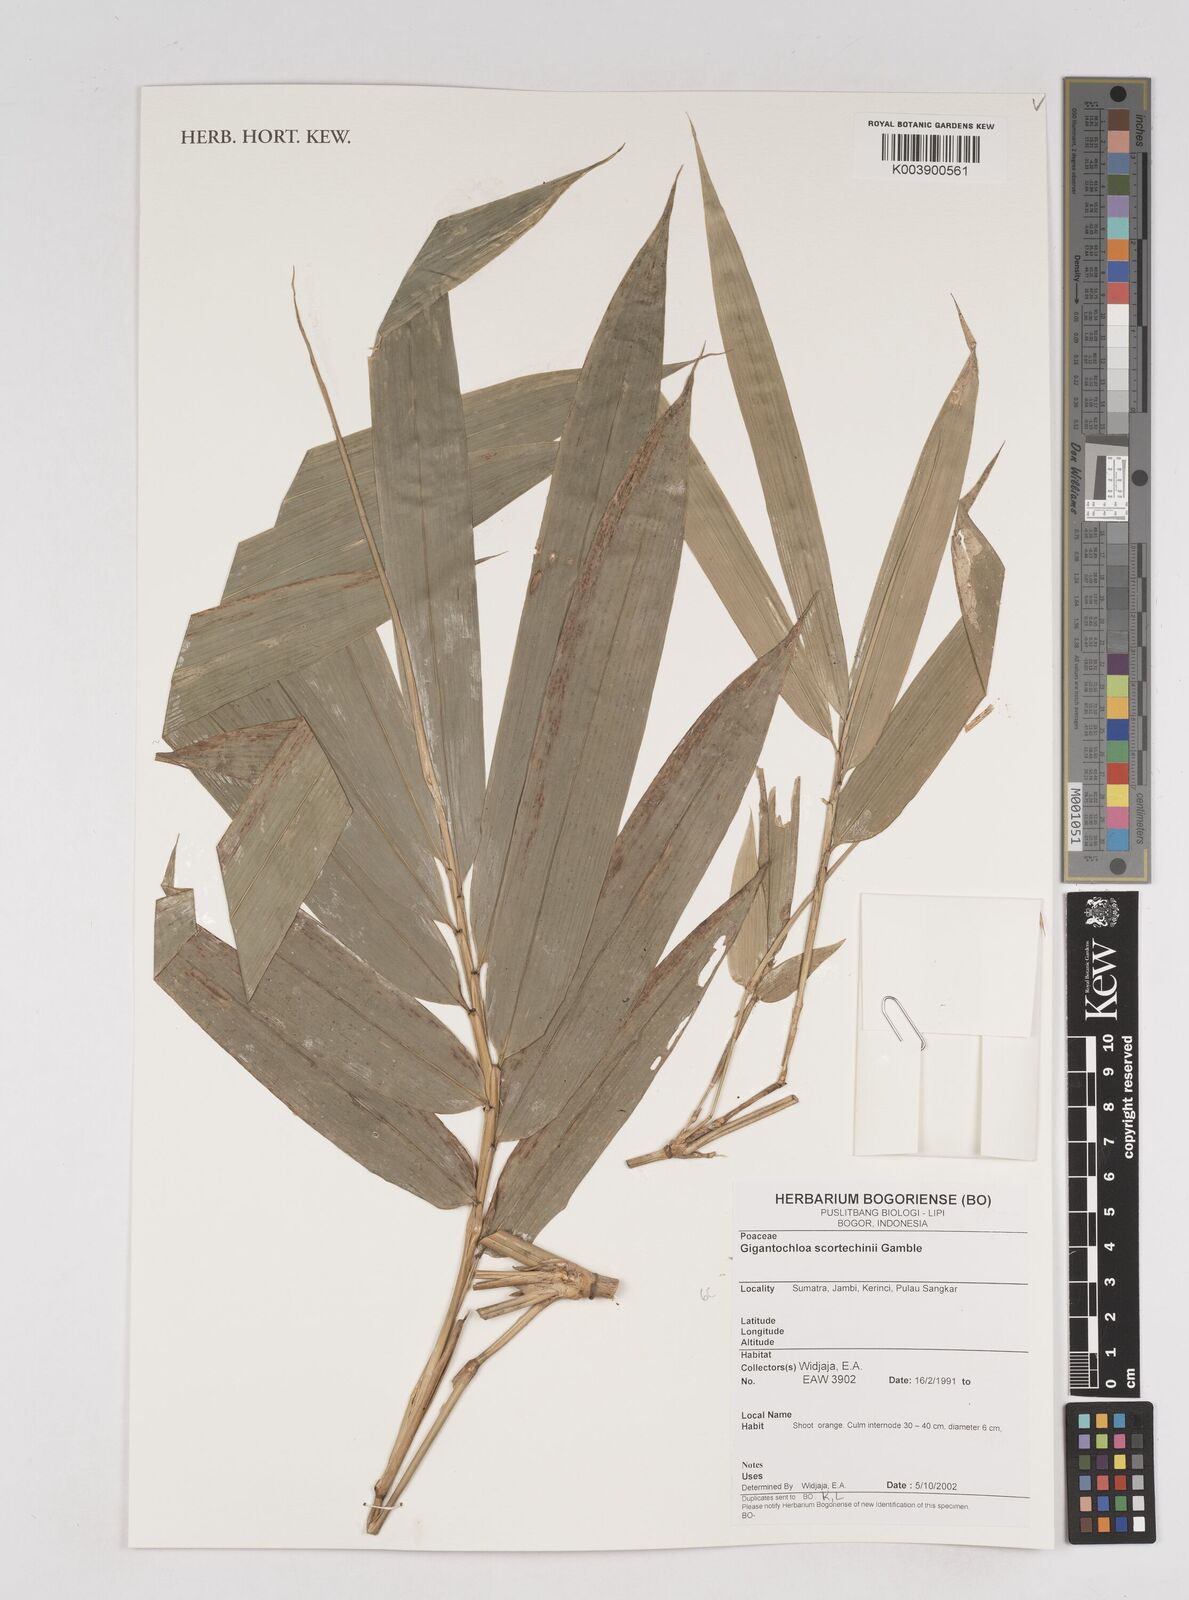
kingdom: Plantae
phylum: Tracheophyta
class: Liliopsida
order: Poales
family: Poaceae
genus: Gigantochloa
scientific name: Gigantochloa scortechinii
